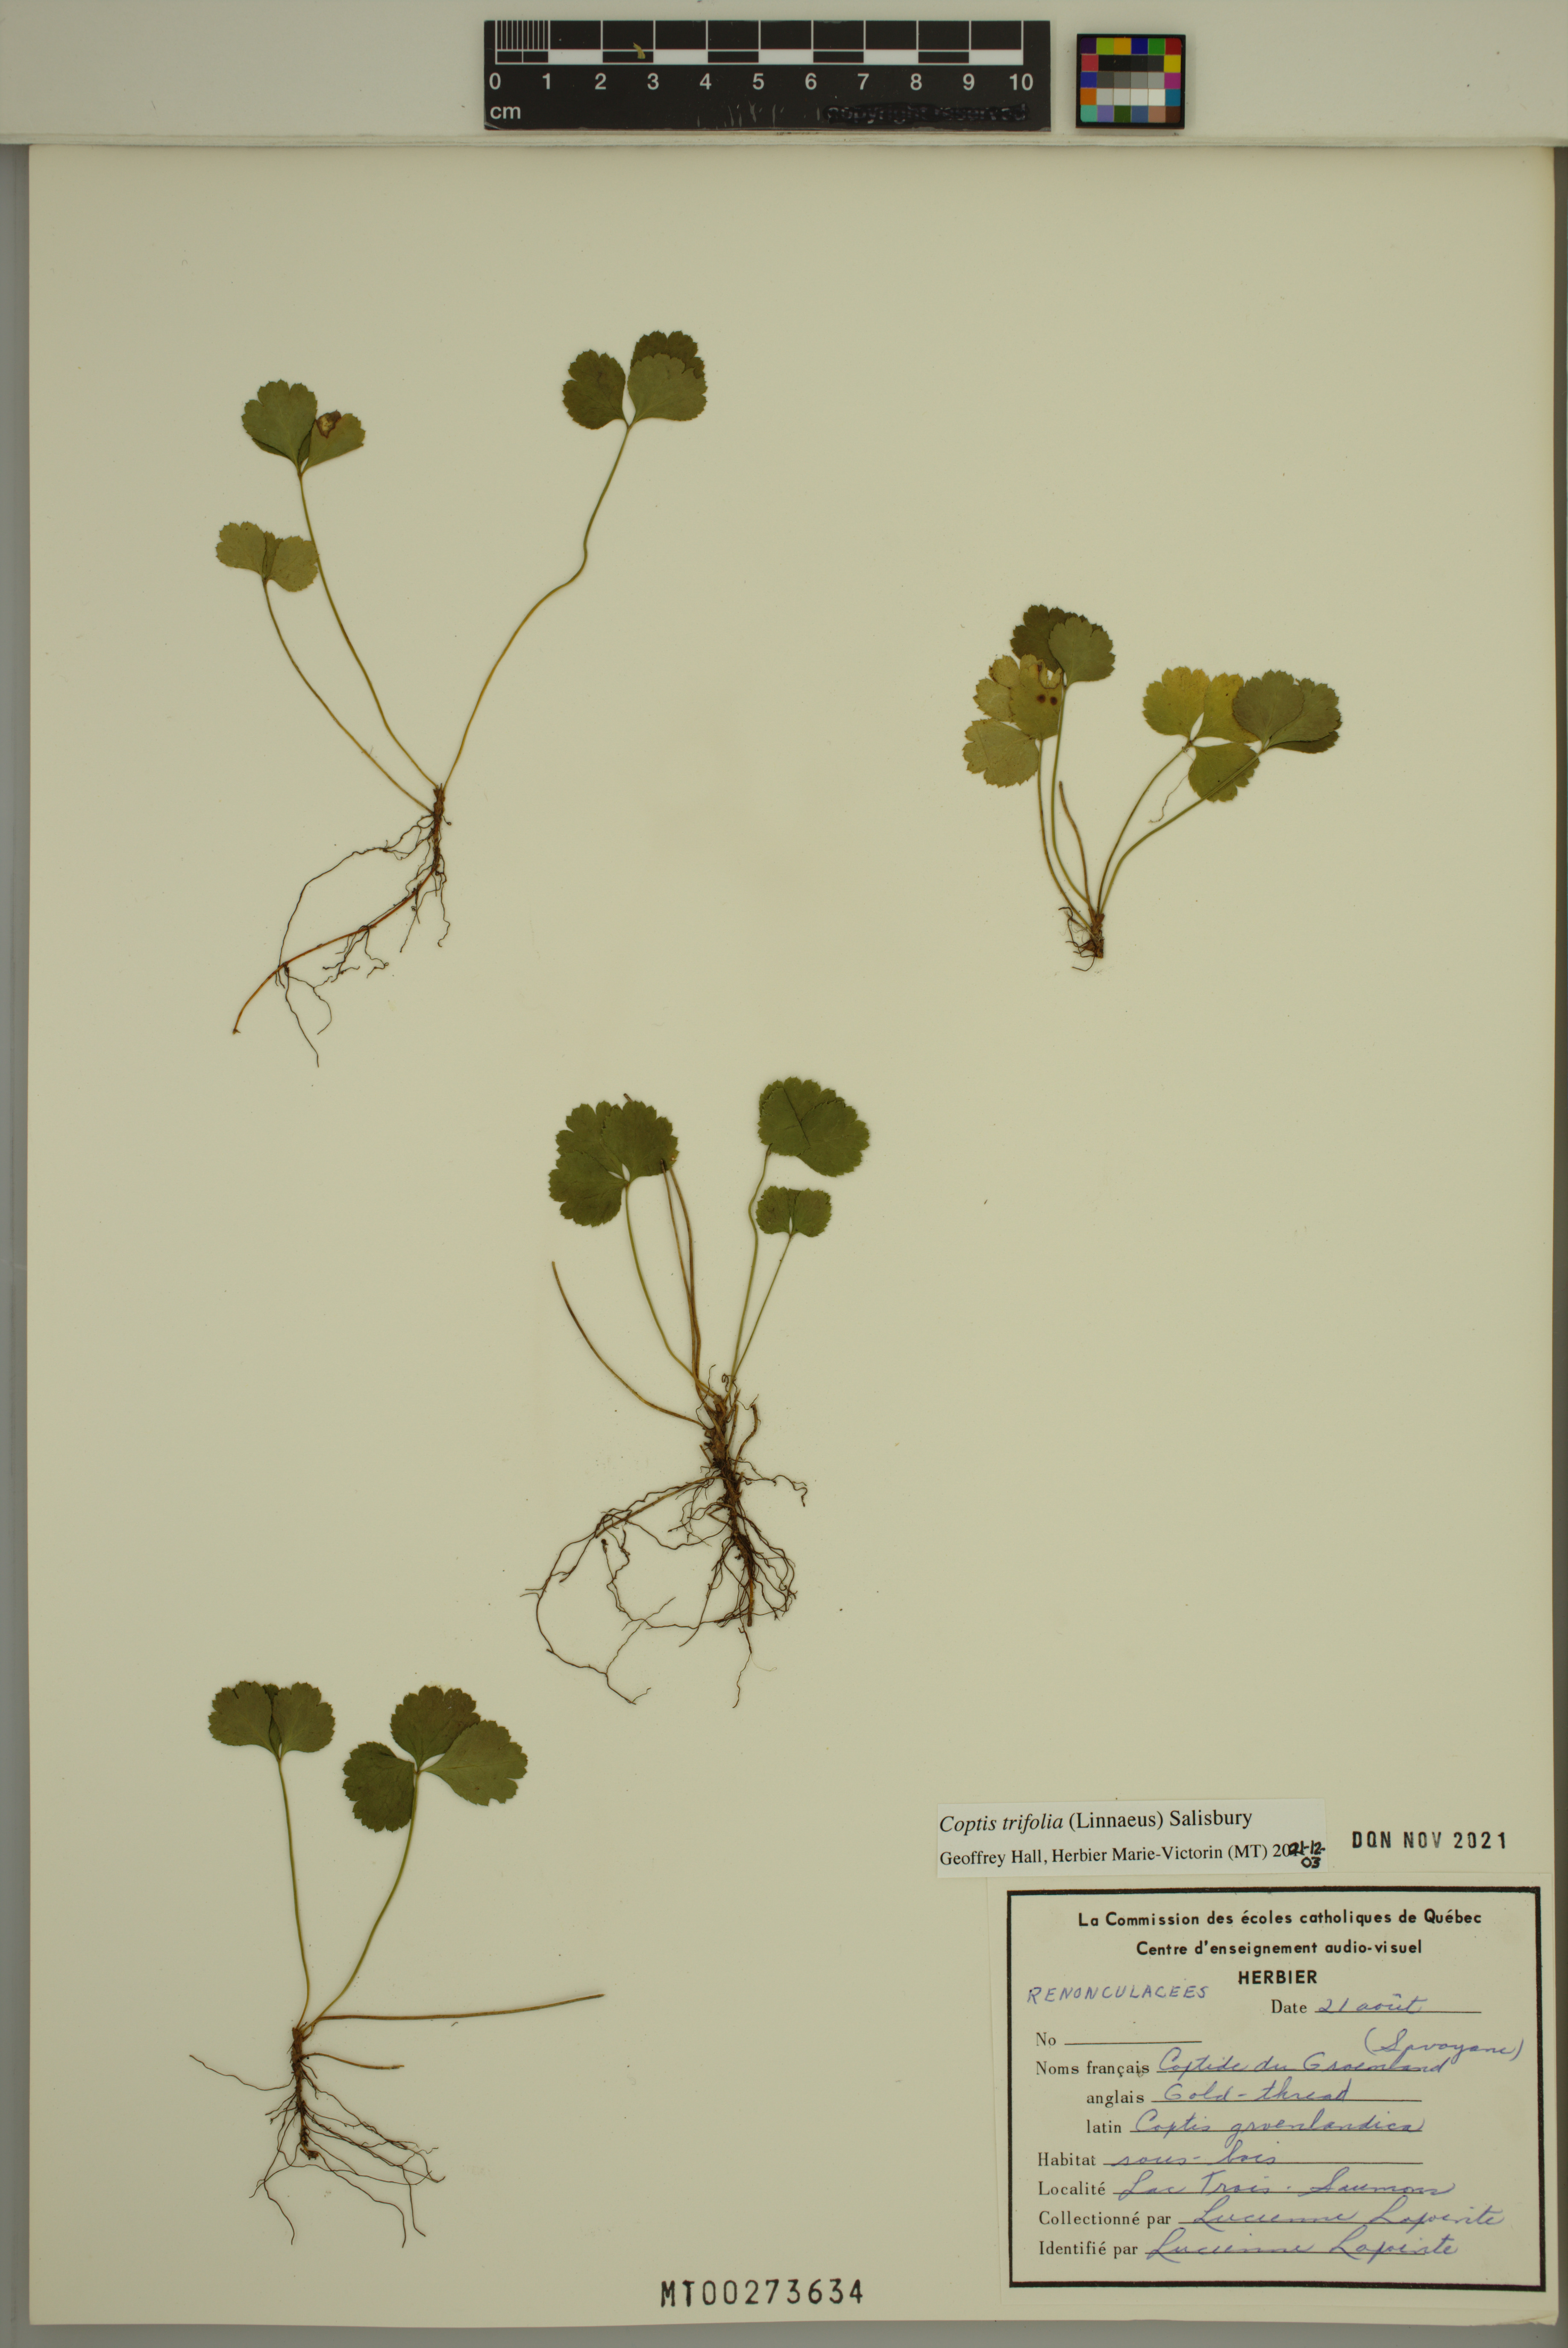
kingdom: Plantae
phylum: Tracheophyta
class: Magnoliopsida
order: Ranunculales
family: Ranunculaceae
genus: Coptis
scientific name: Coptis trifolia
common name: Canker-root
